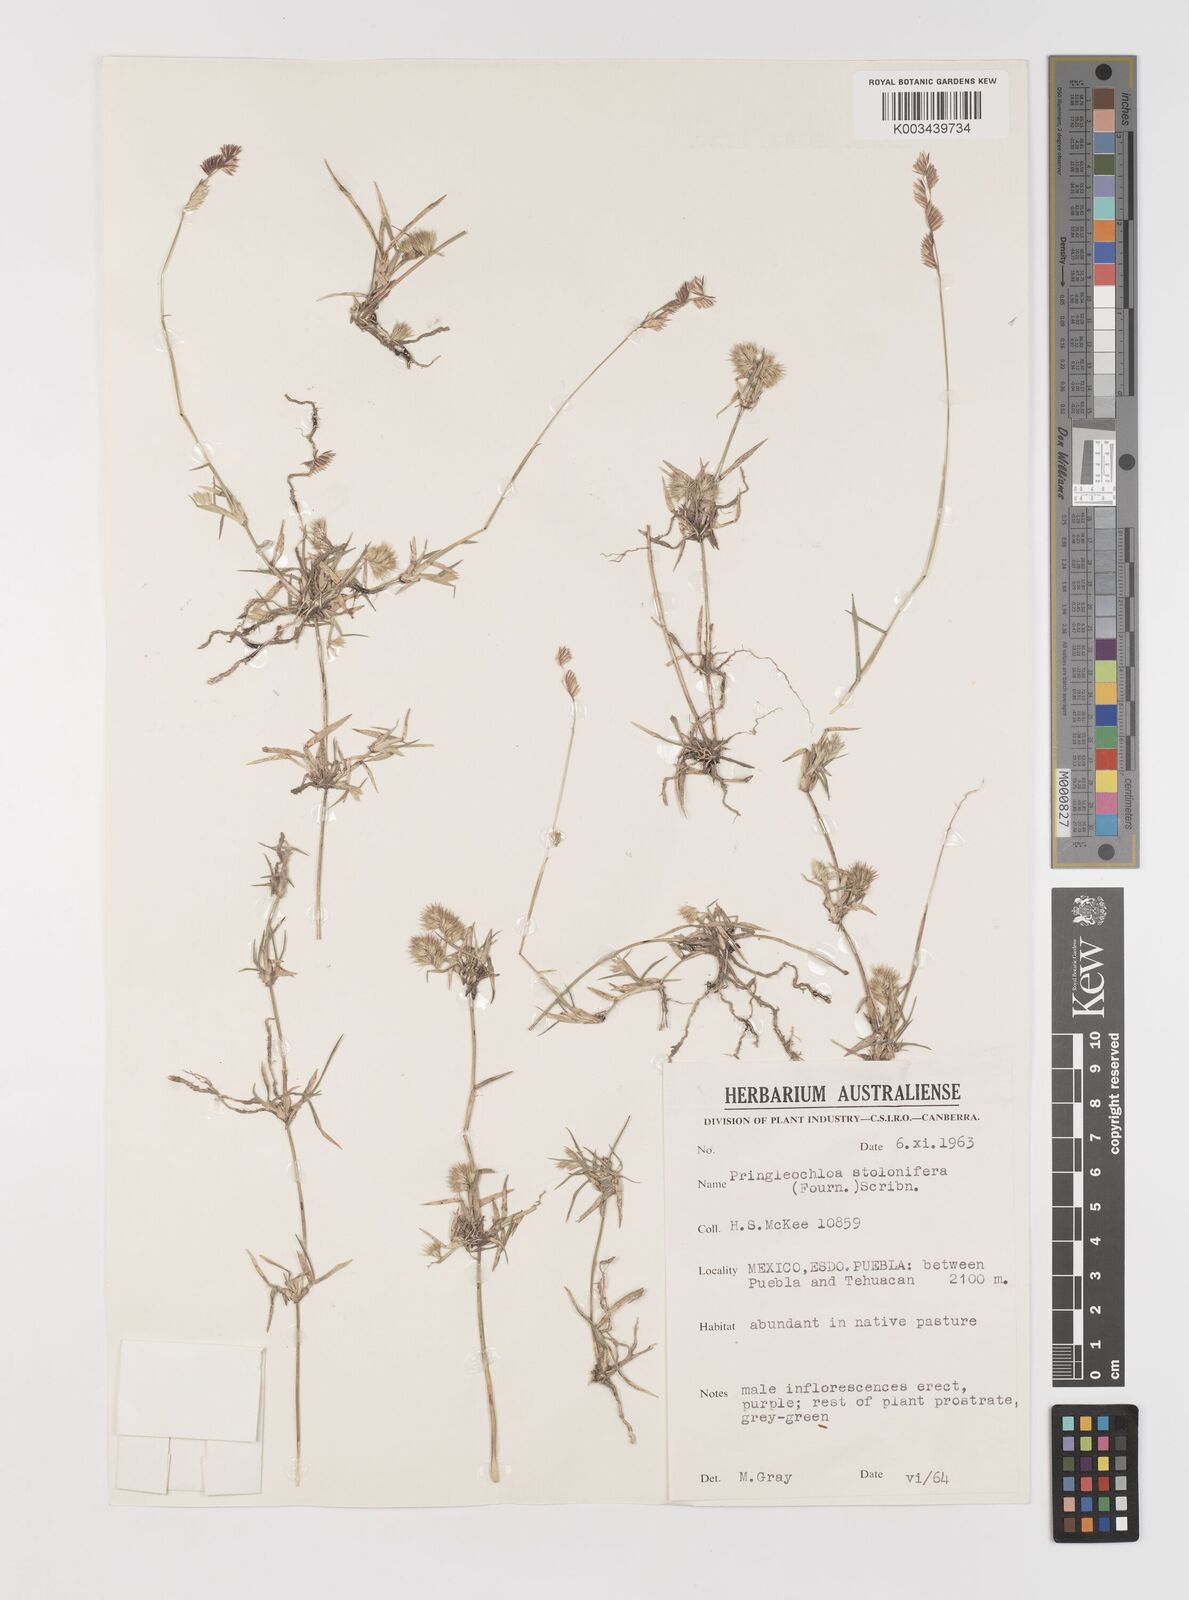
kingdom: Plantae
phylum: Tracheophyta
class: Liliopsida
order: Poales
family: Poaceae
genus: Bouteloua
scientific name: Bouteloua reederorum
